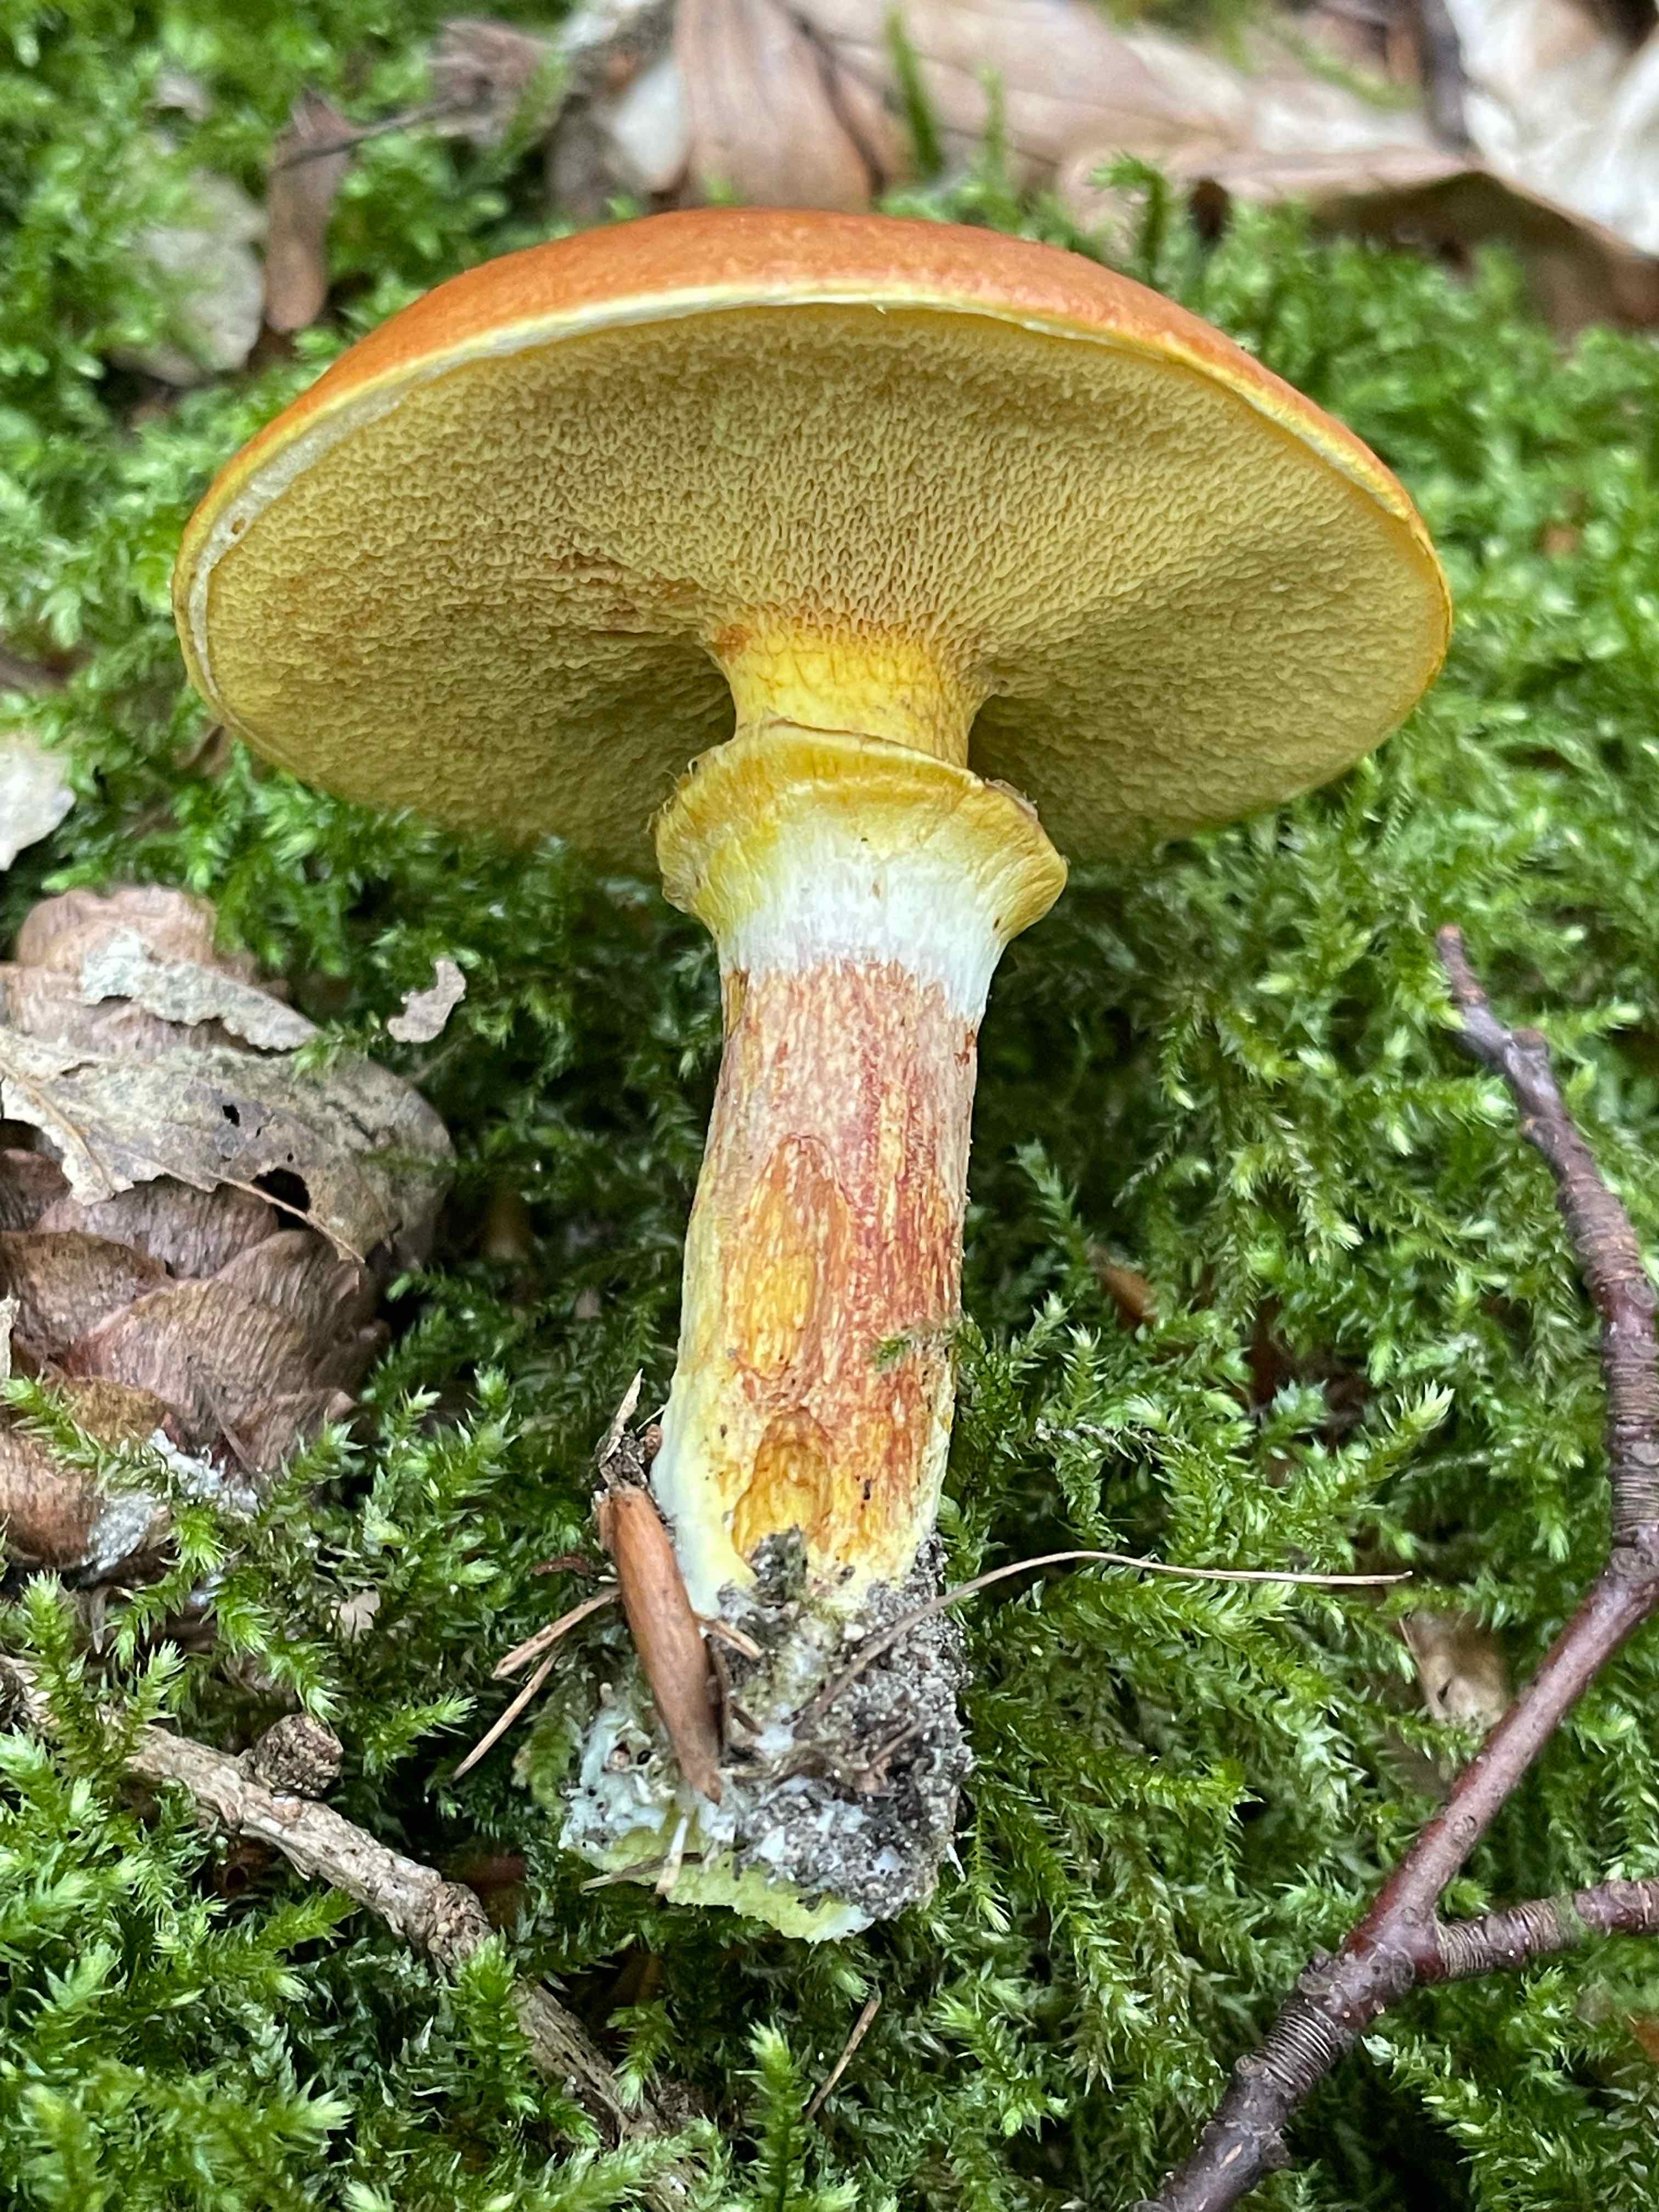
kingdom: Fungi
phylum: Basidiomycota
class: Agaricomycetes
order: Boletales
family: Suillaceae
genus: Suillus
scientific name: Suillus grevillei
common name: lærke-slimrørhat
